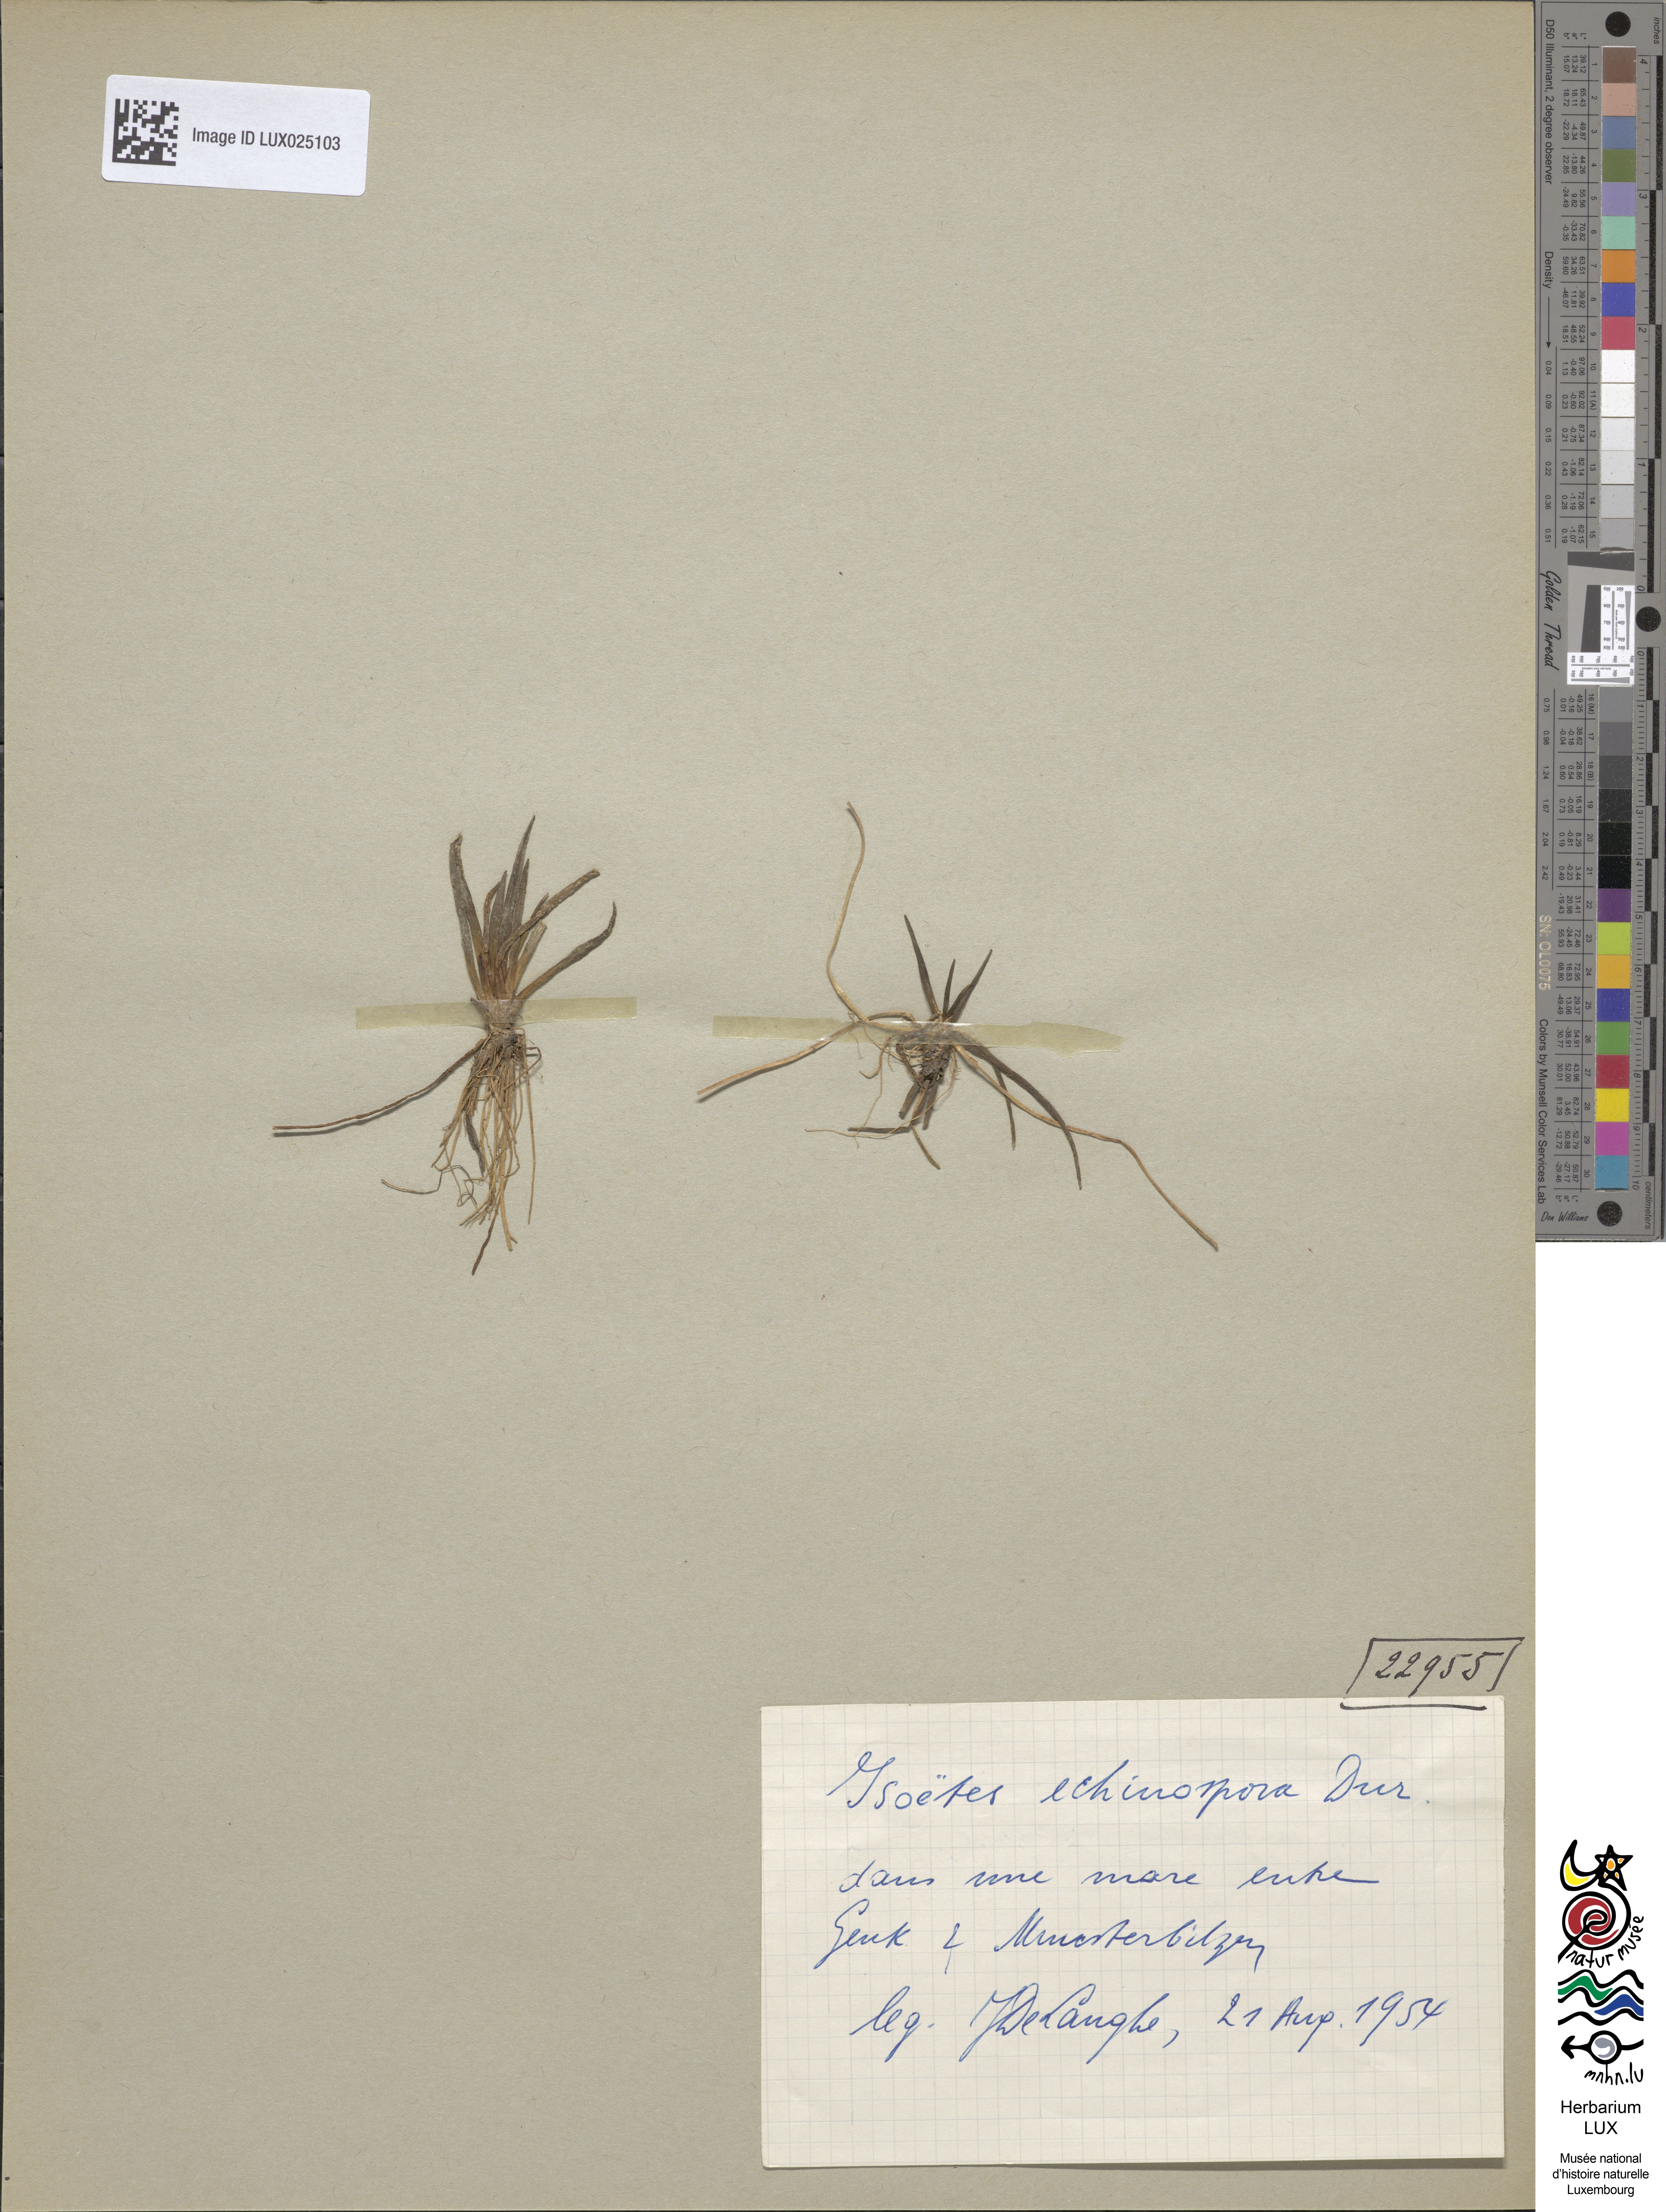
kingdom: Plantae
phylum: Tracheophyta
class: Lycopodiopsida
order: Isoetales
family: Isoetaceae
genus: Isoetes
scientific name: Isoetes echinospora
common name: Spring quillwort
